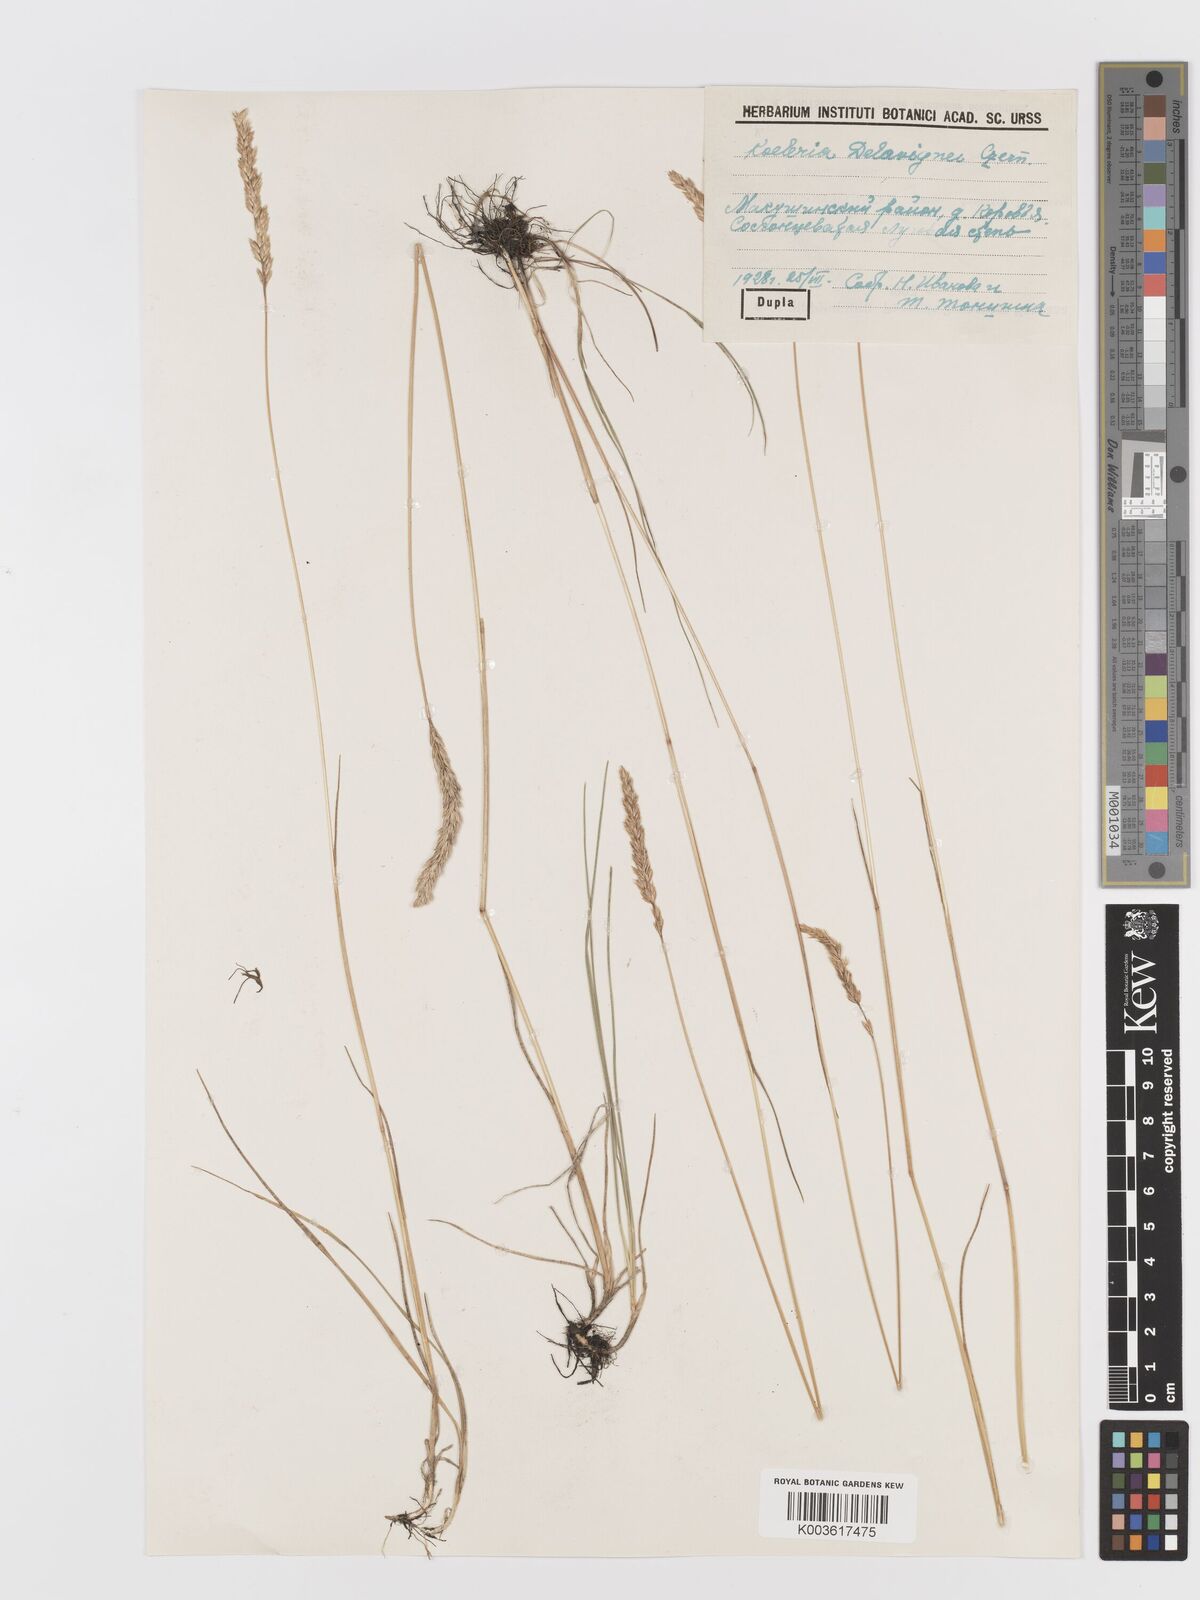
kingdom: Plantae
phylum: Tracheophyta
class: Liliopsida
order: Poales
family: Poaceae
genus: Koeleria
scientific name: Koeleria delavignei
